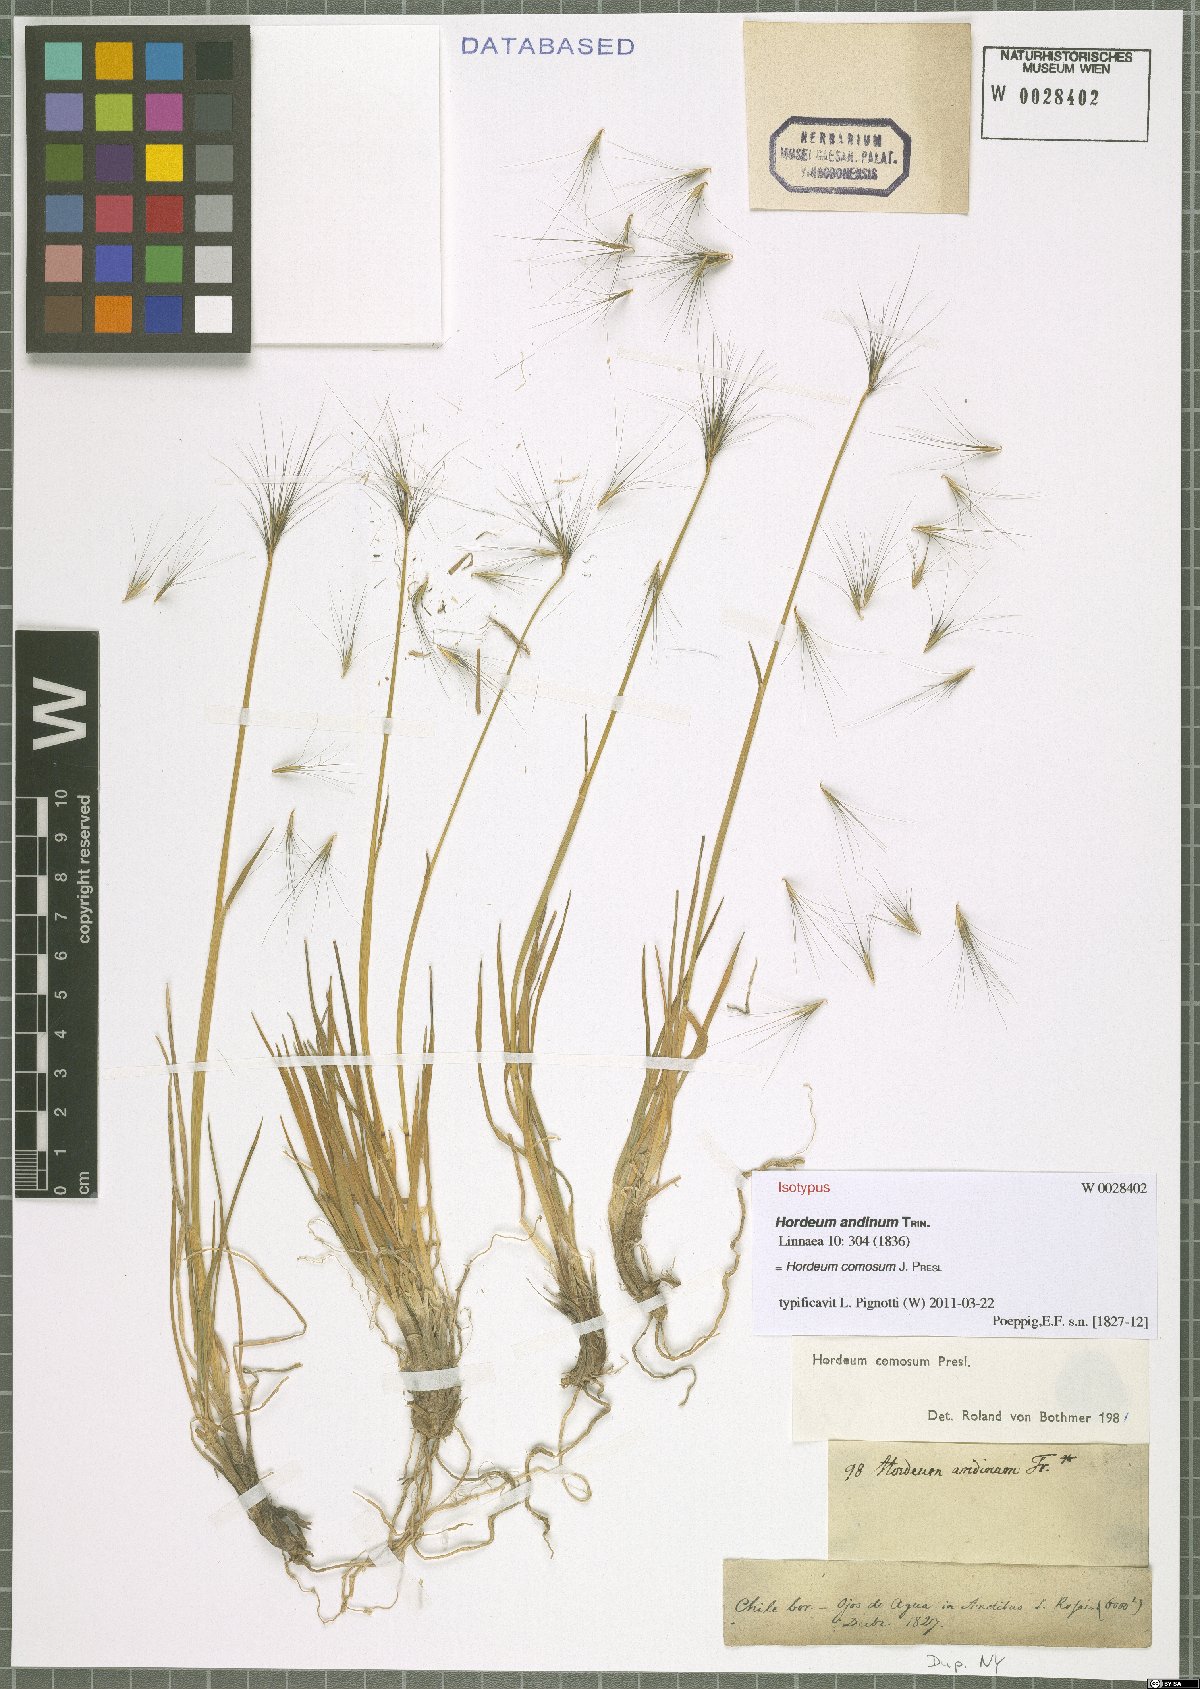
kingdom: Plantae
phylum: Tracheophyta
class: Liliopsida
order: Poales
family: Poaceae
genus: Hordeum
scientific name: Hordeum comosum
